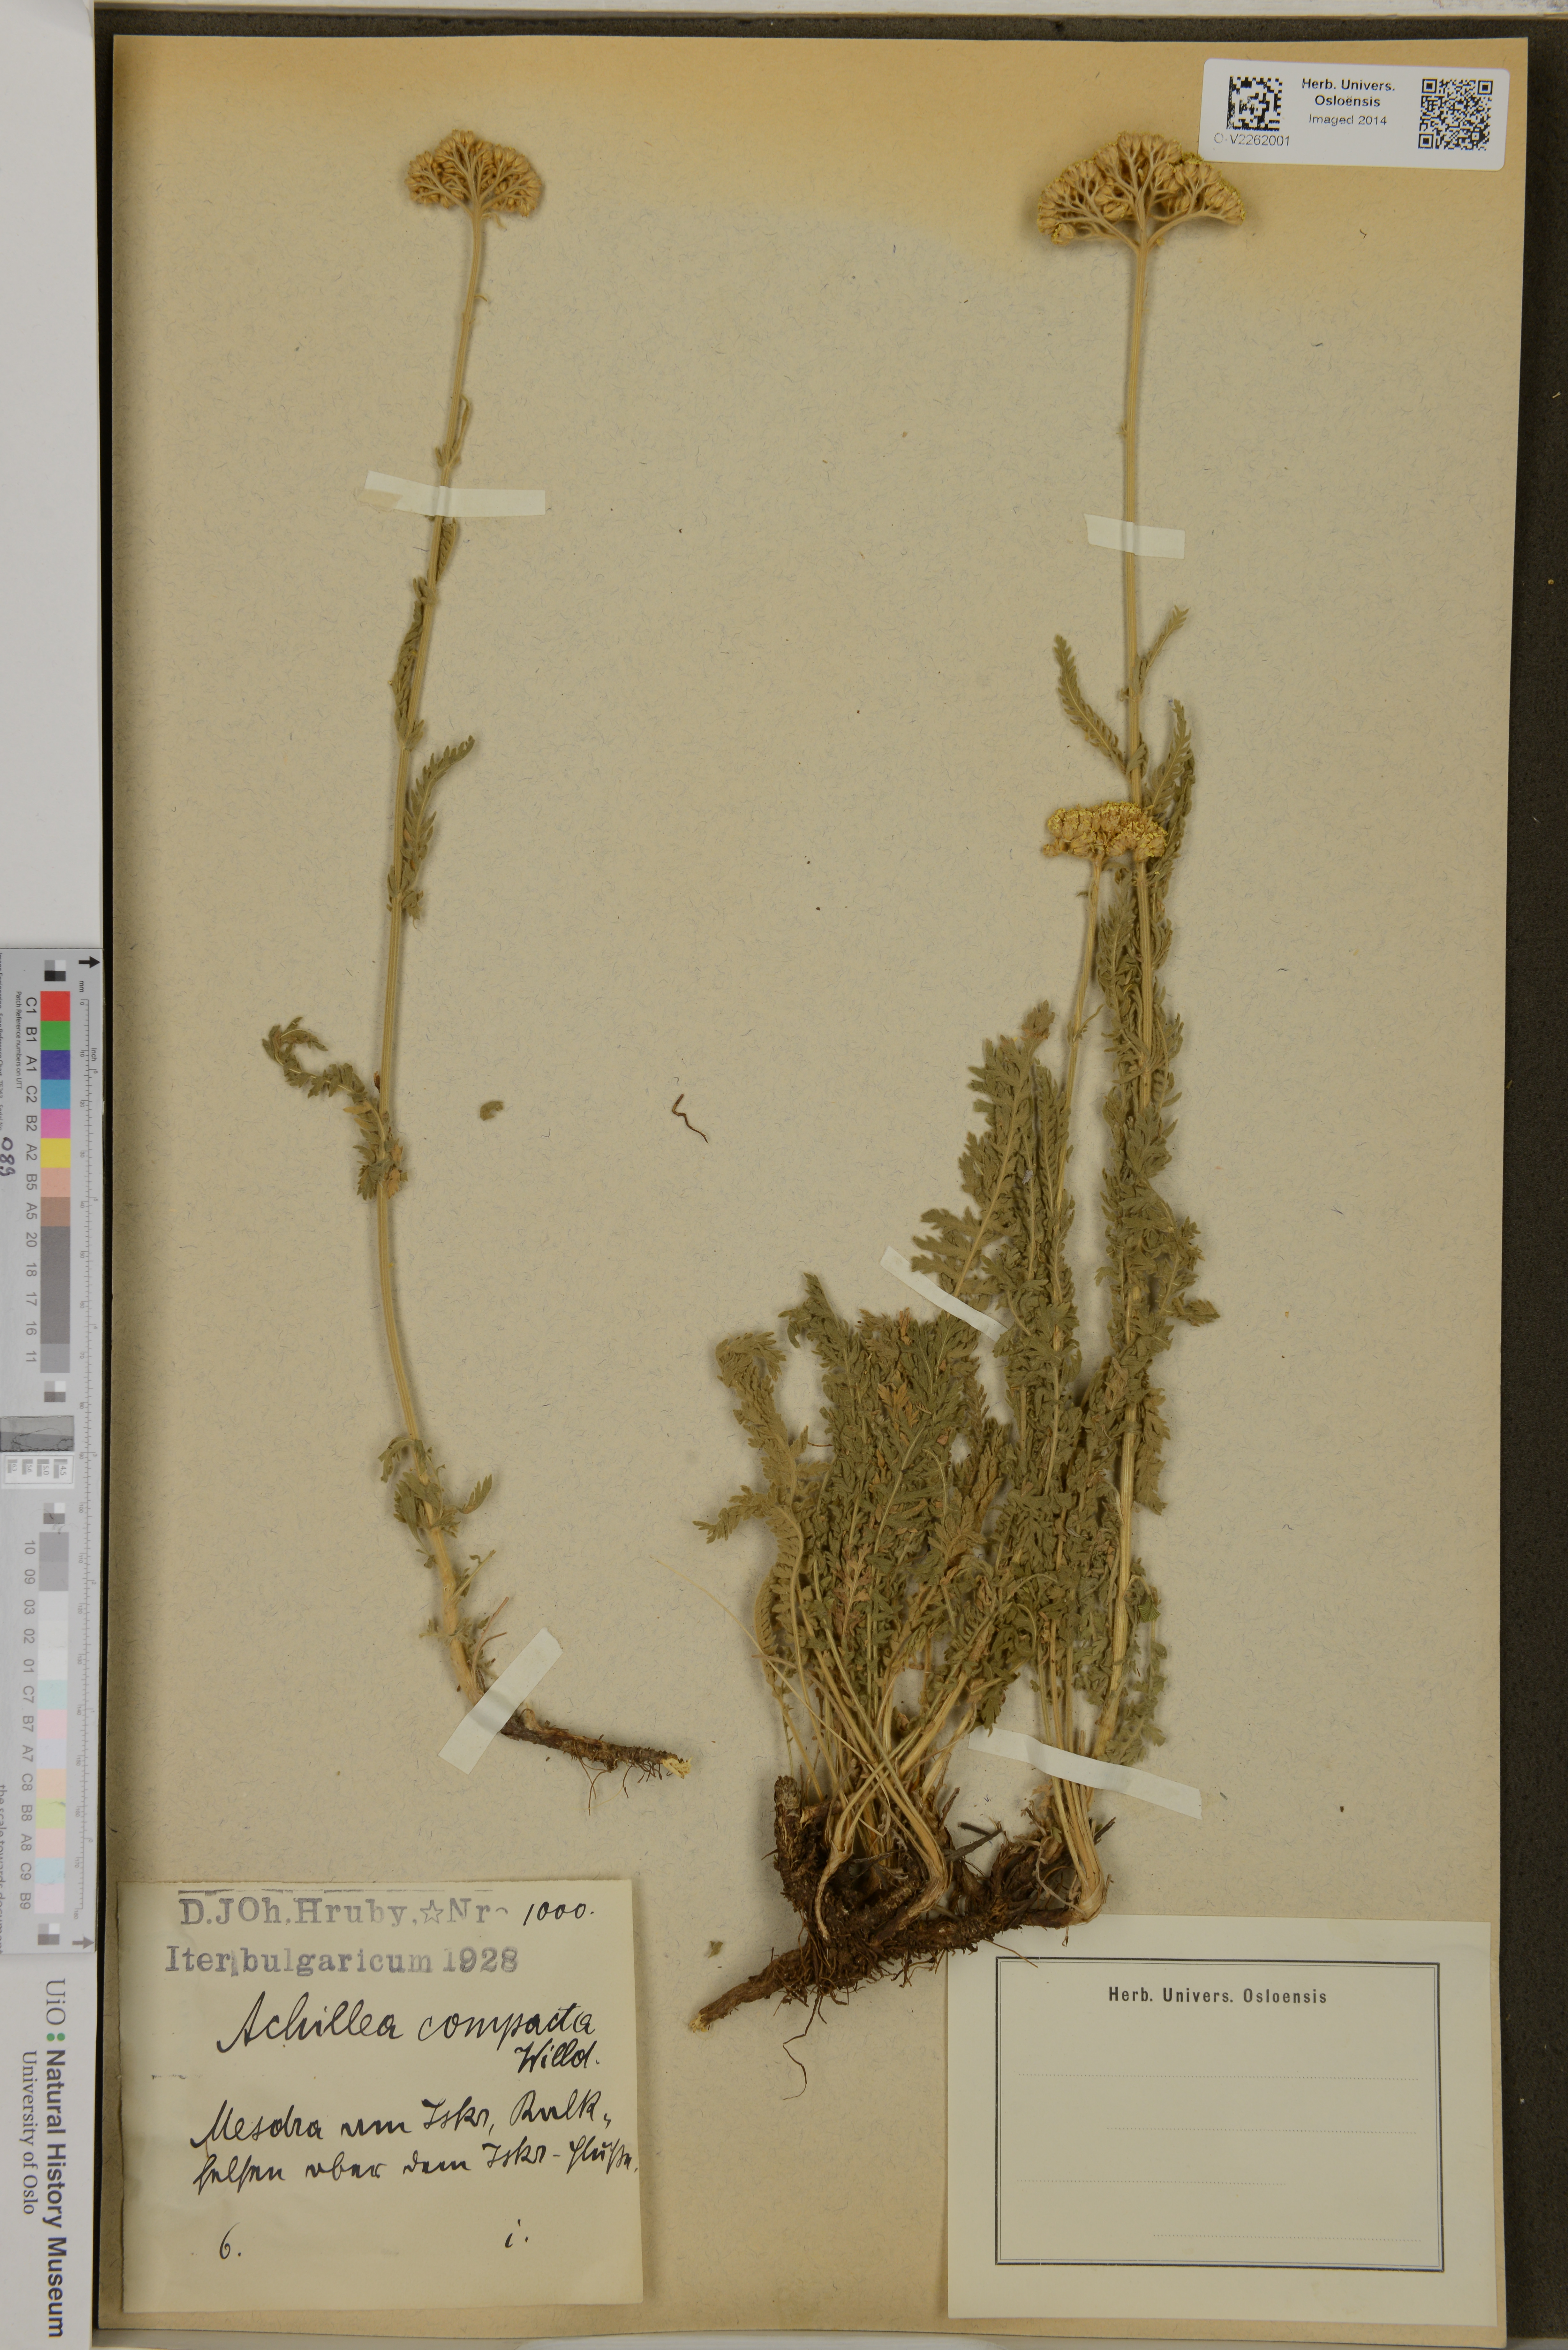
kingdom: Plantae
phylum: Tracheophyta
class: Magnoliopsida
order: Asterales
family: Asteraceae
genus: Achillea
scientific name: Achillea
